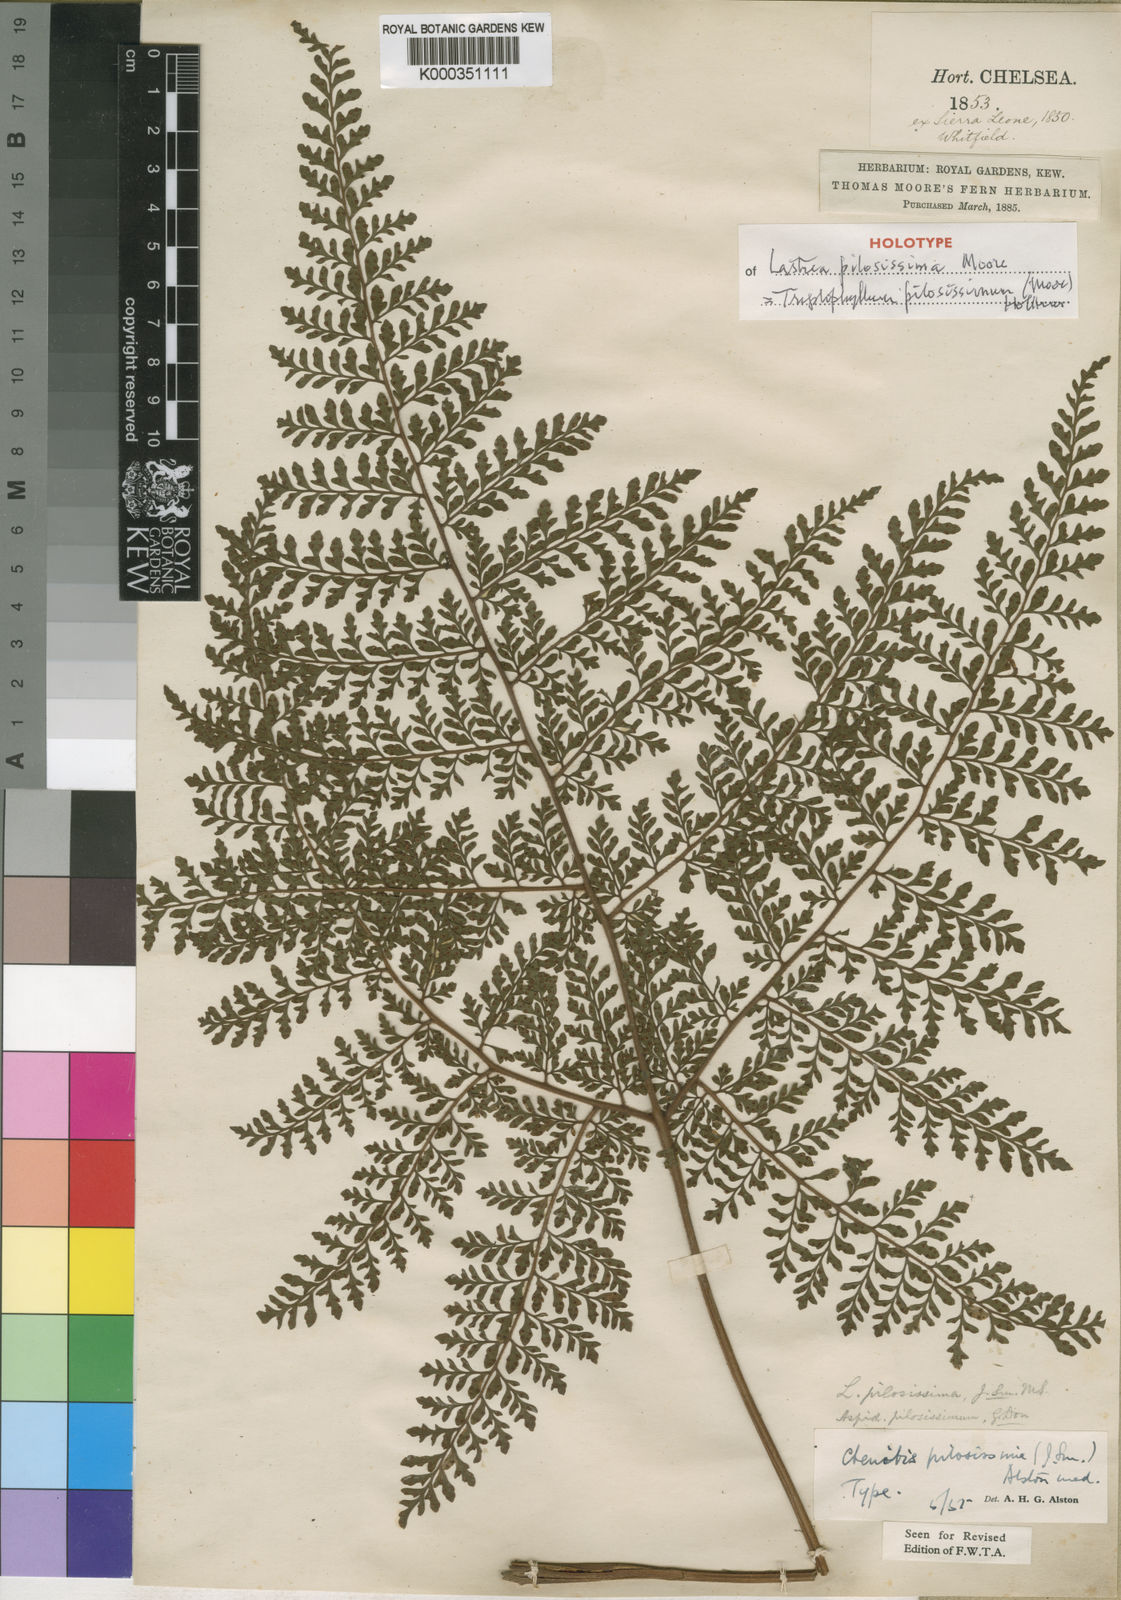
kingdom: Plantae
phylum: Tracheophyta
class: Polypodiopsida
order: Polypodiales
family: Tectariaceae
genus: Triplophyllum
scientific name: Triplophyllum pilosissimum
